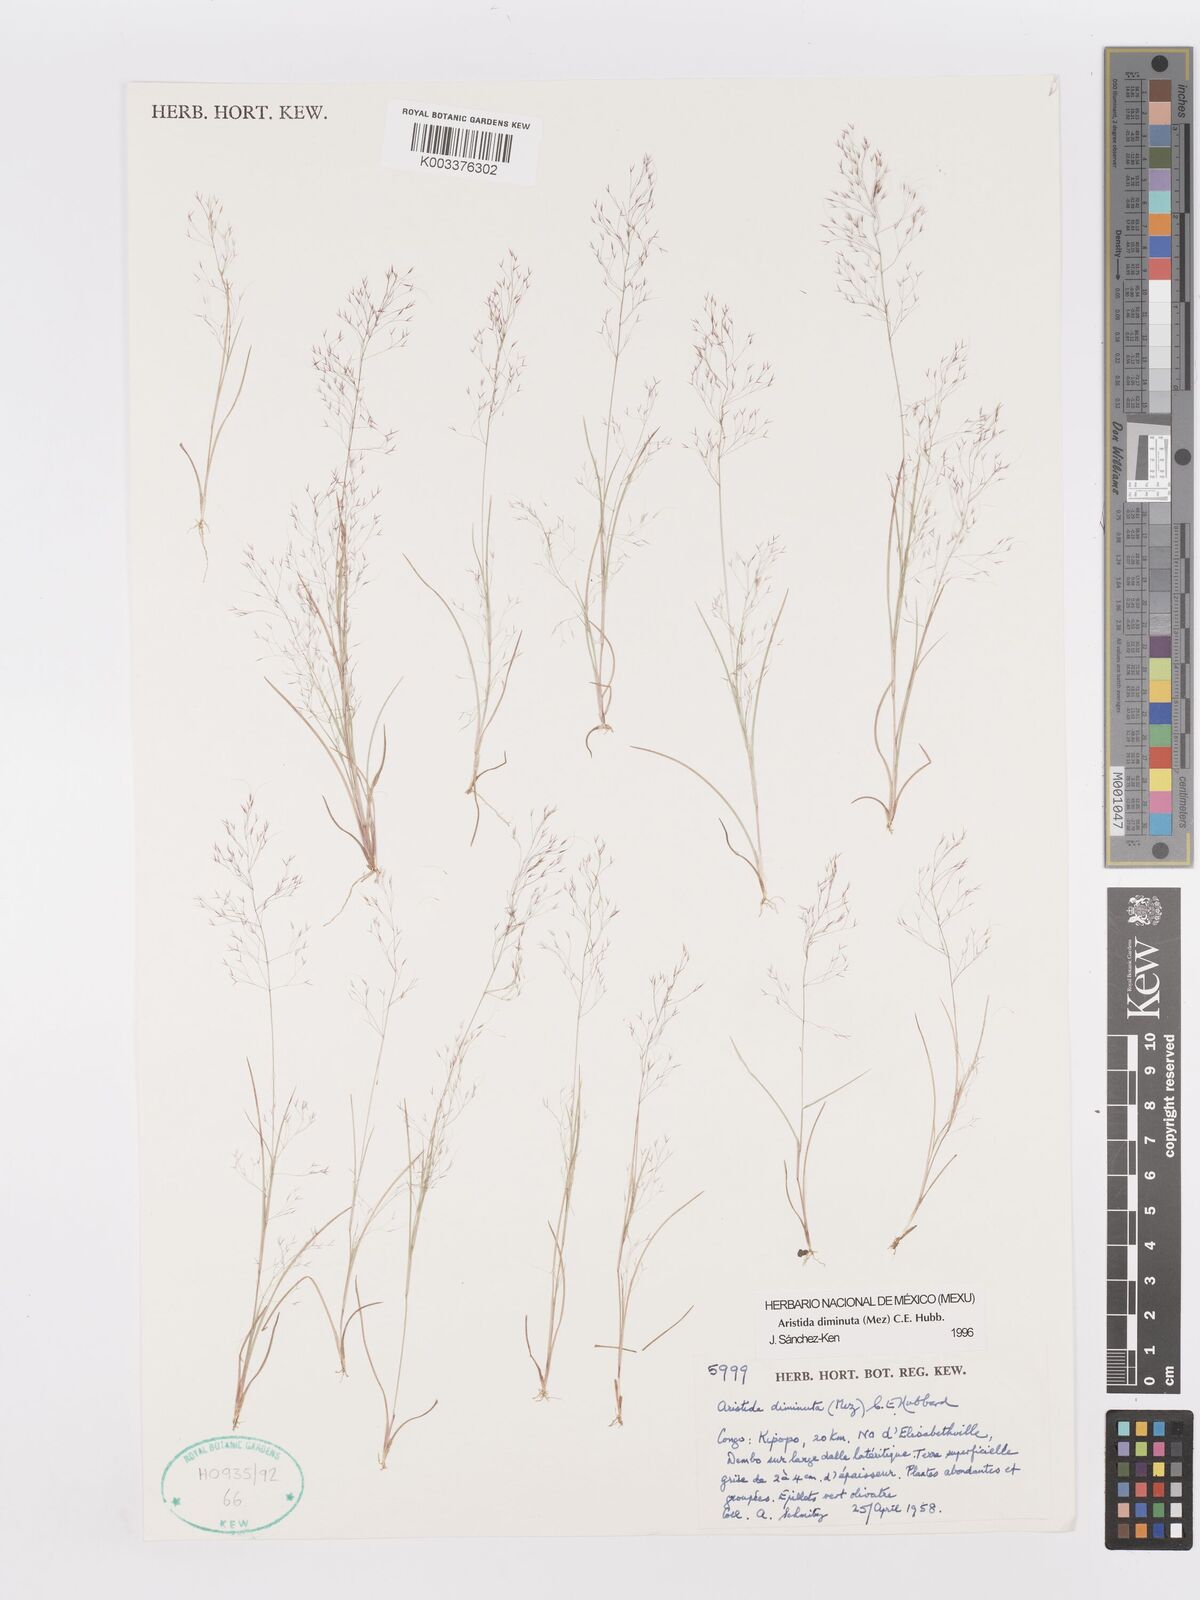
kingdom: Plantae
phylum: Tracheophyta
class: Liliopsida
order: Poales
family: Poaceae
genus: Aristida
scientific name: Aristida diminuta
